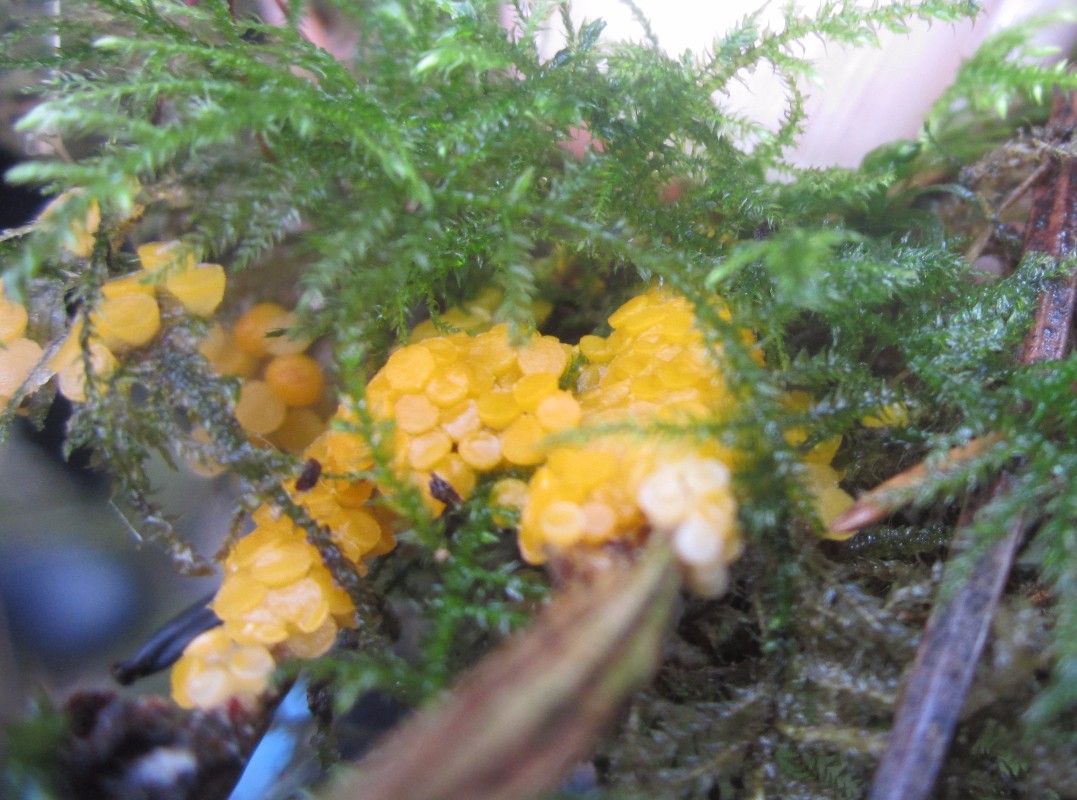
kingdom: Fungi
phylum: Ascomycota
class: Pezizomycetes
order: Pezizales
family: Pyronemataceae
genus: Byssonectria
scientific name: Byssonectria fusispora
